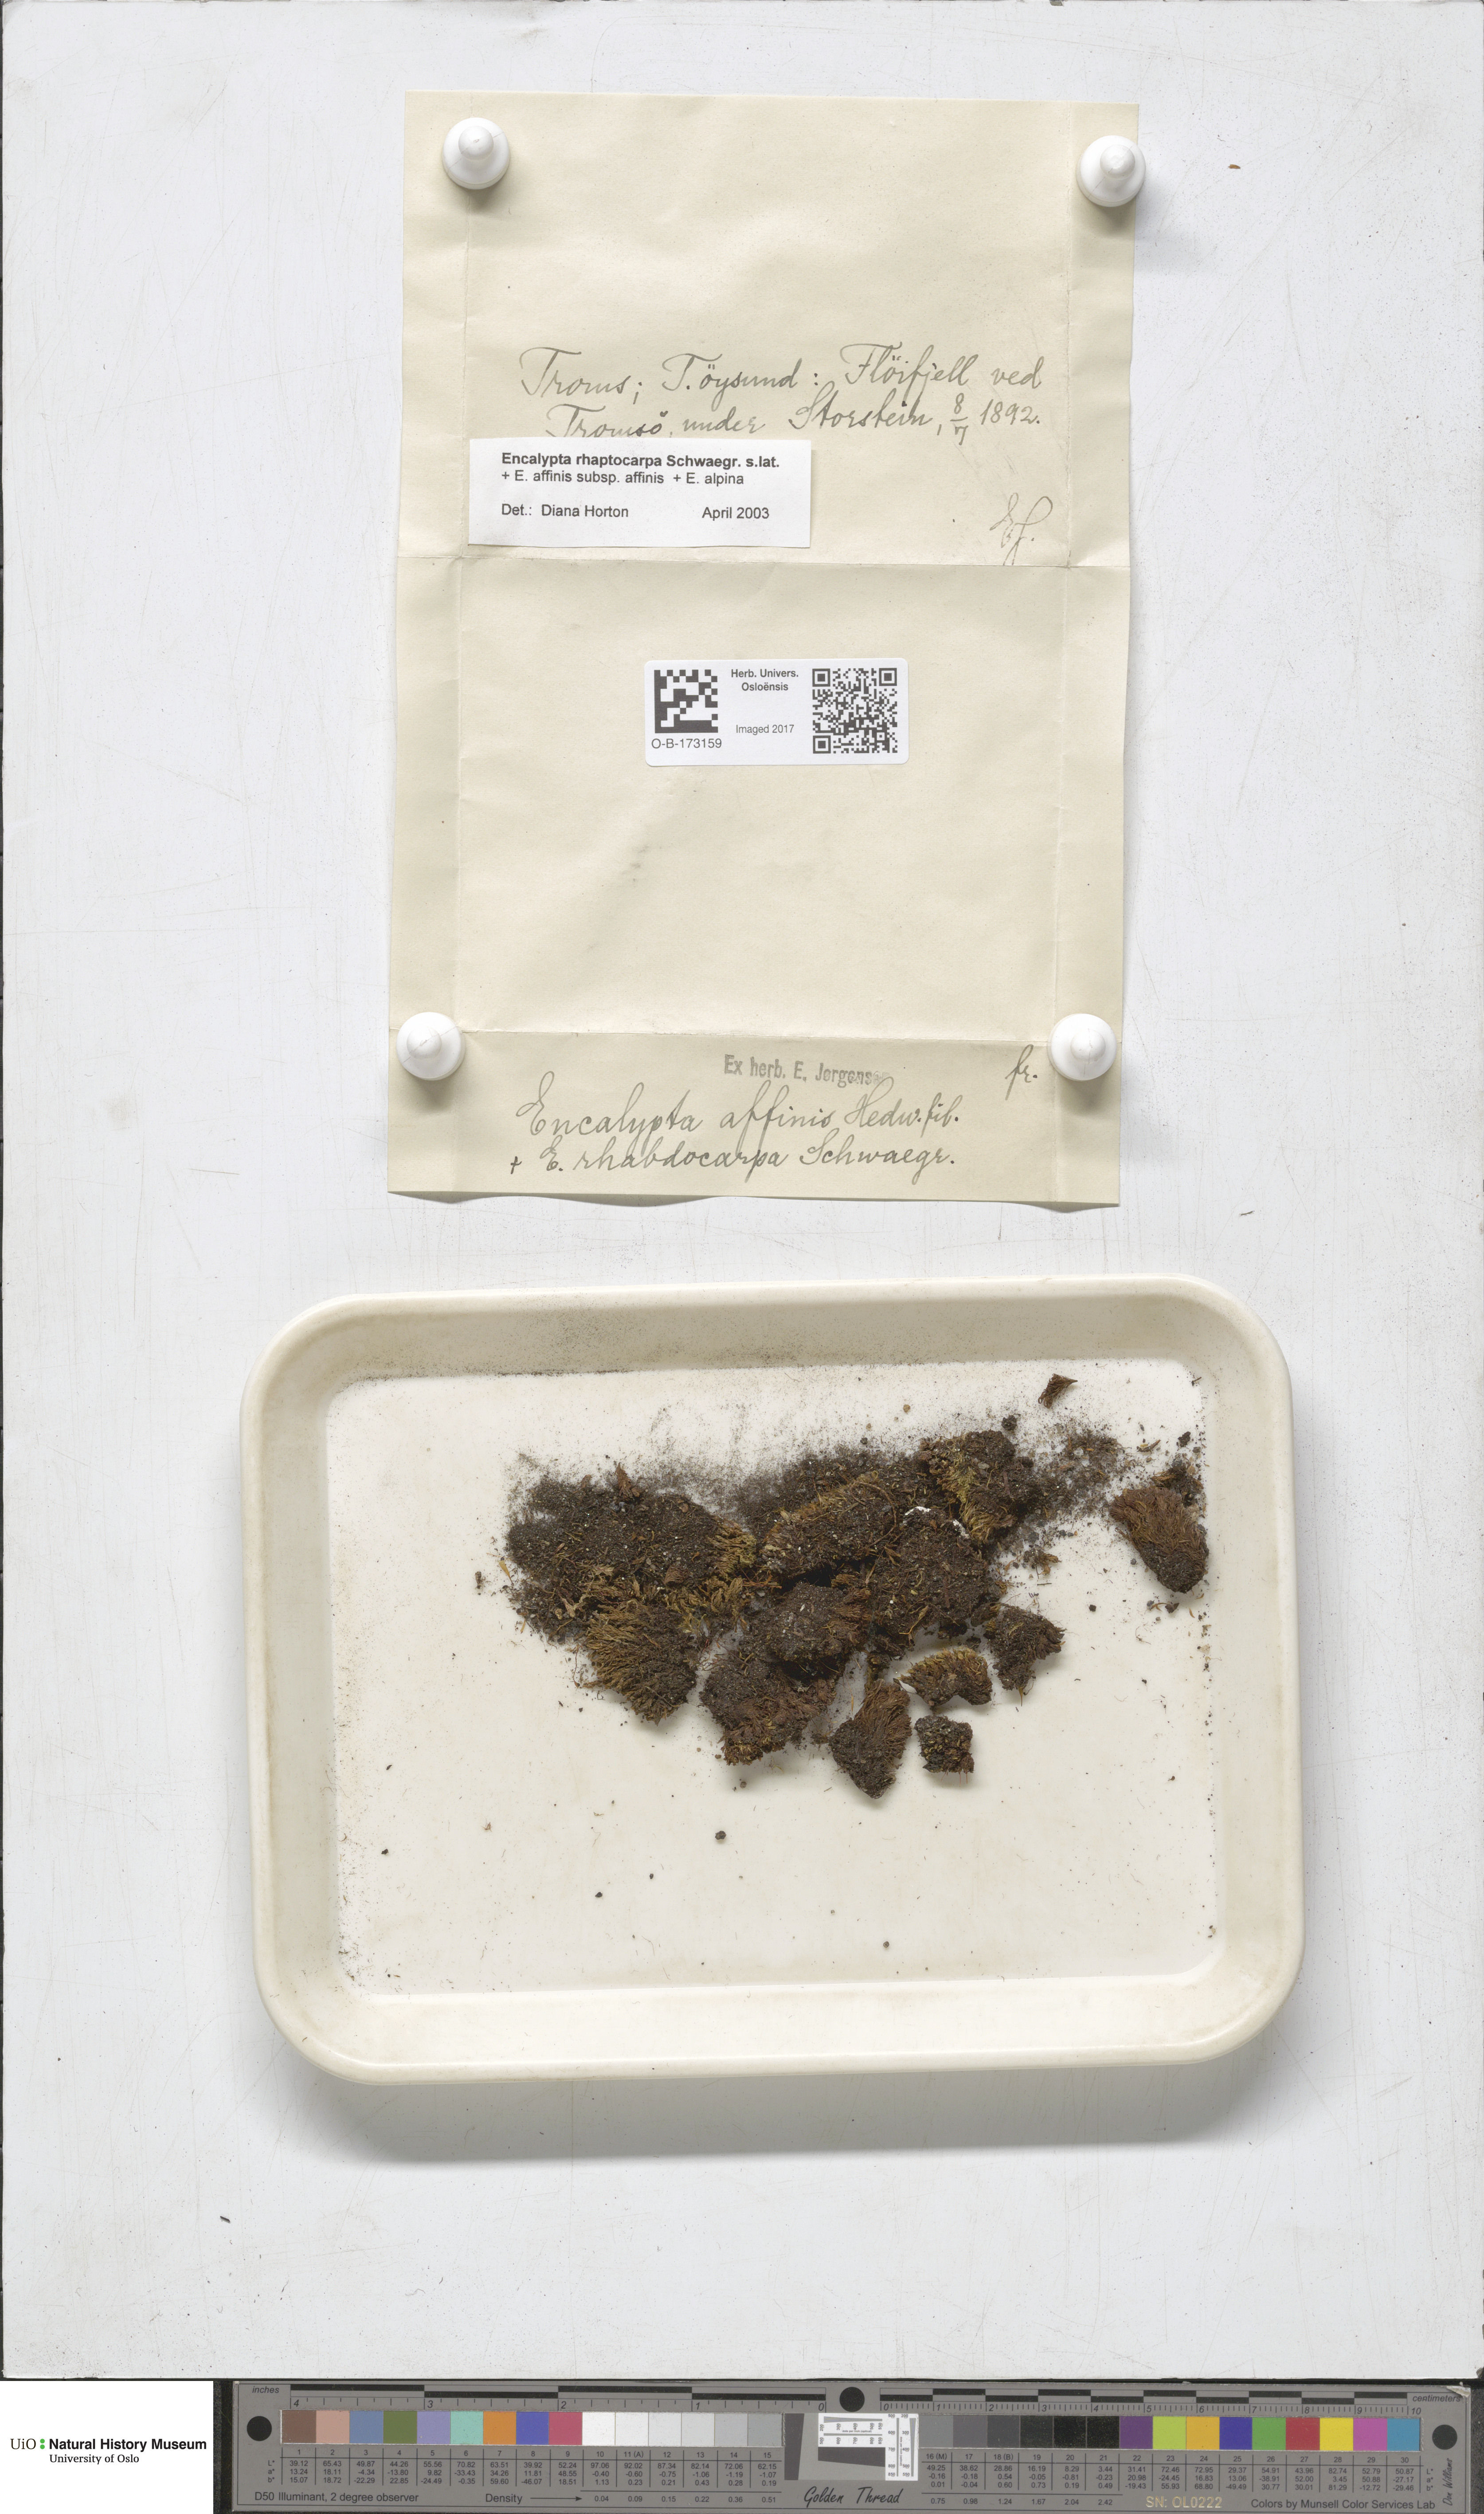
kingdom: Plantae
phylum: Bryophyta
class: Bryopsida
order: Encalyptales
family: Encalyptaceae
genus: Encalypta
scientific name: Encalypta rhaptocarpa
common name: Ribbed extinguisher moss
